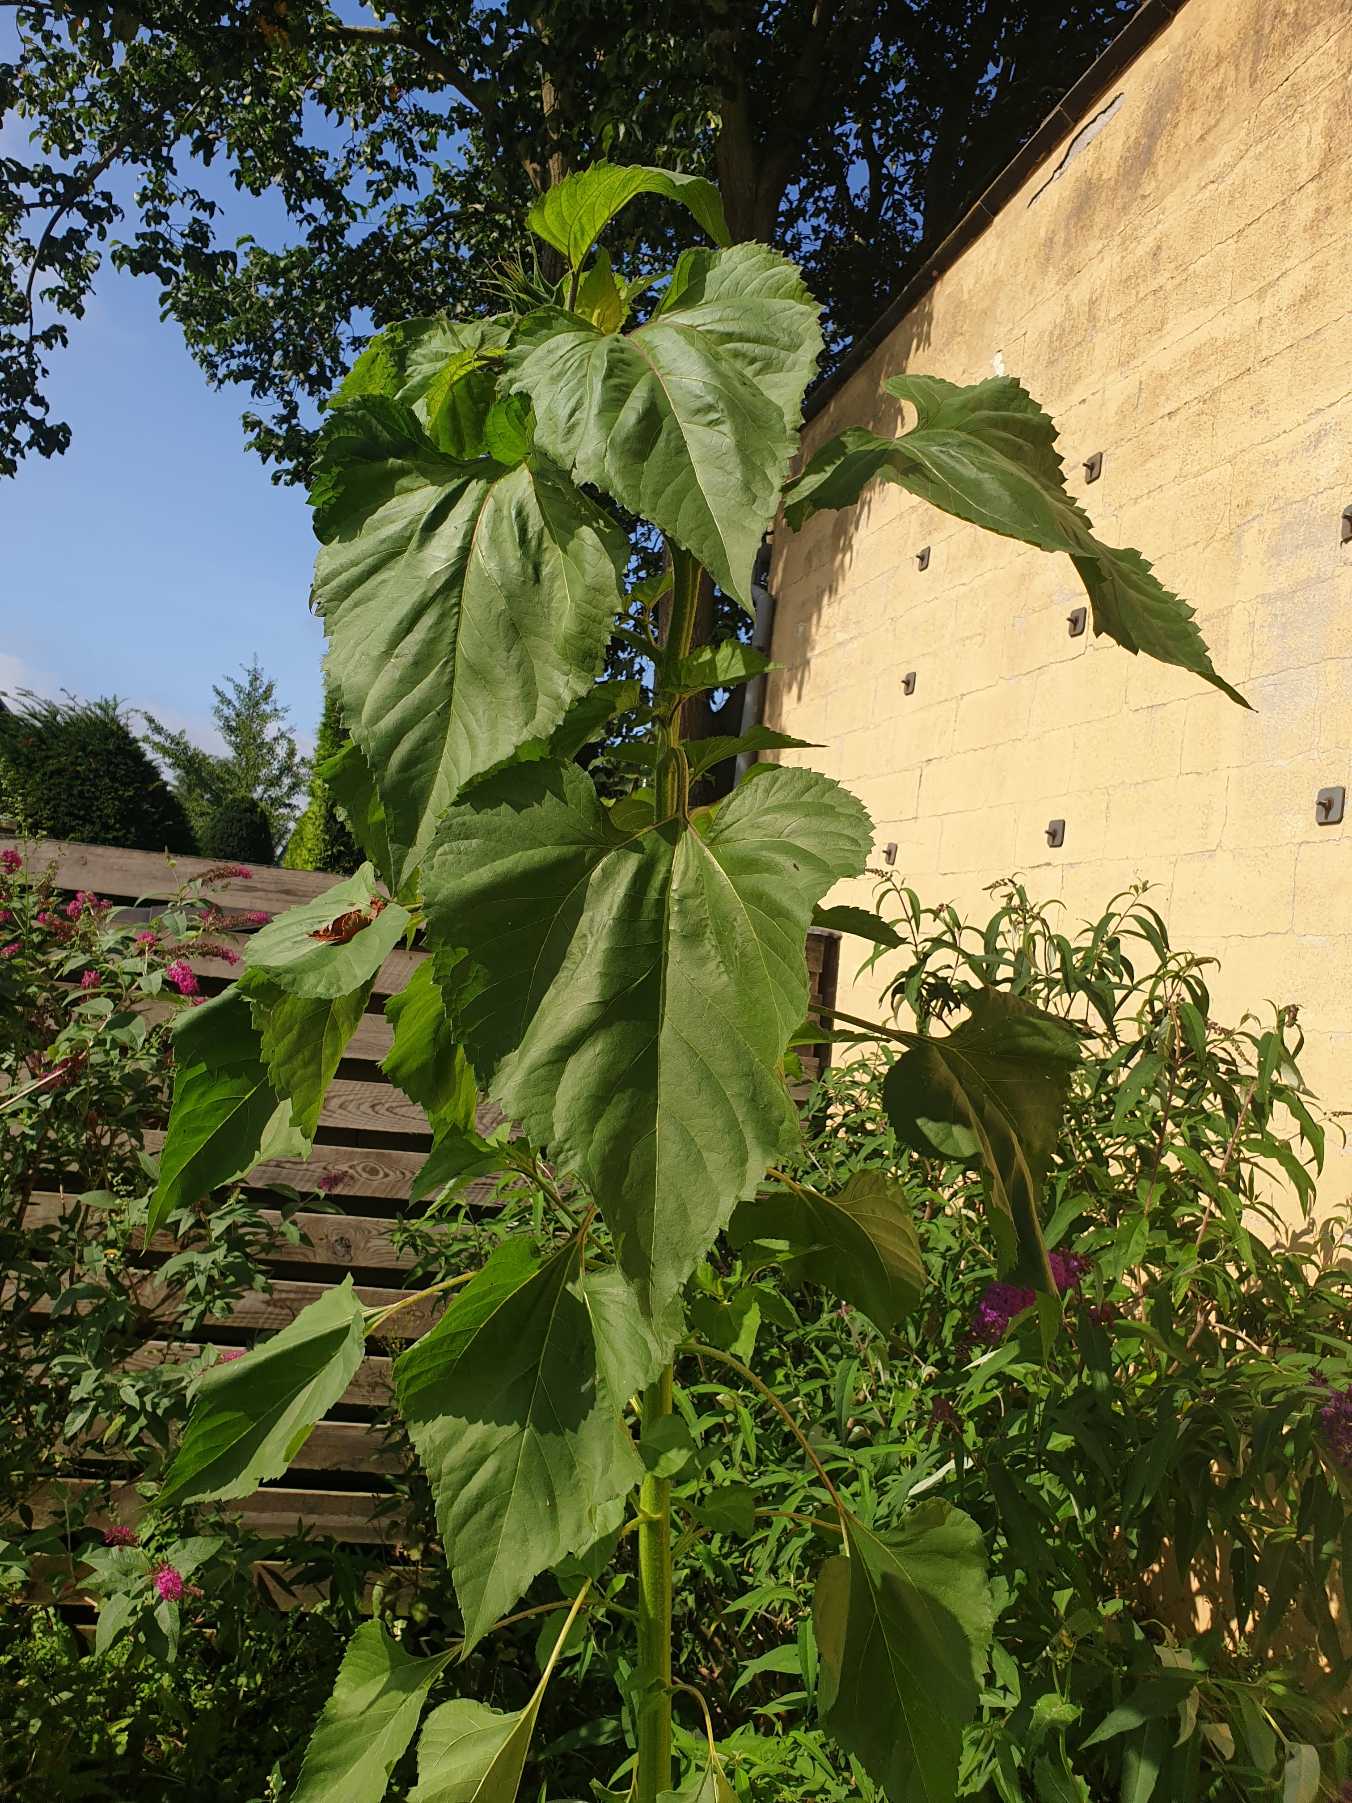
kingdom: Plantae
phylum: Tracheophyta
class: Magnoliopsida
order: Asterales
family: Asteraceae
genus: Helianthus
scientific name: Helianthus annuus
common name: Solsikke
